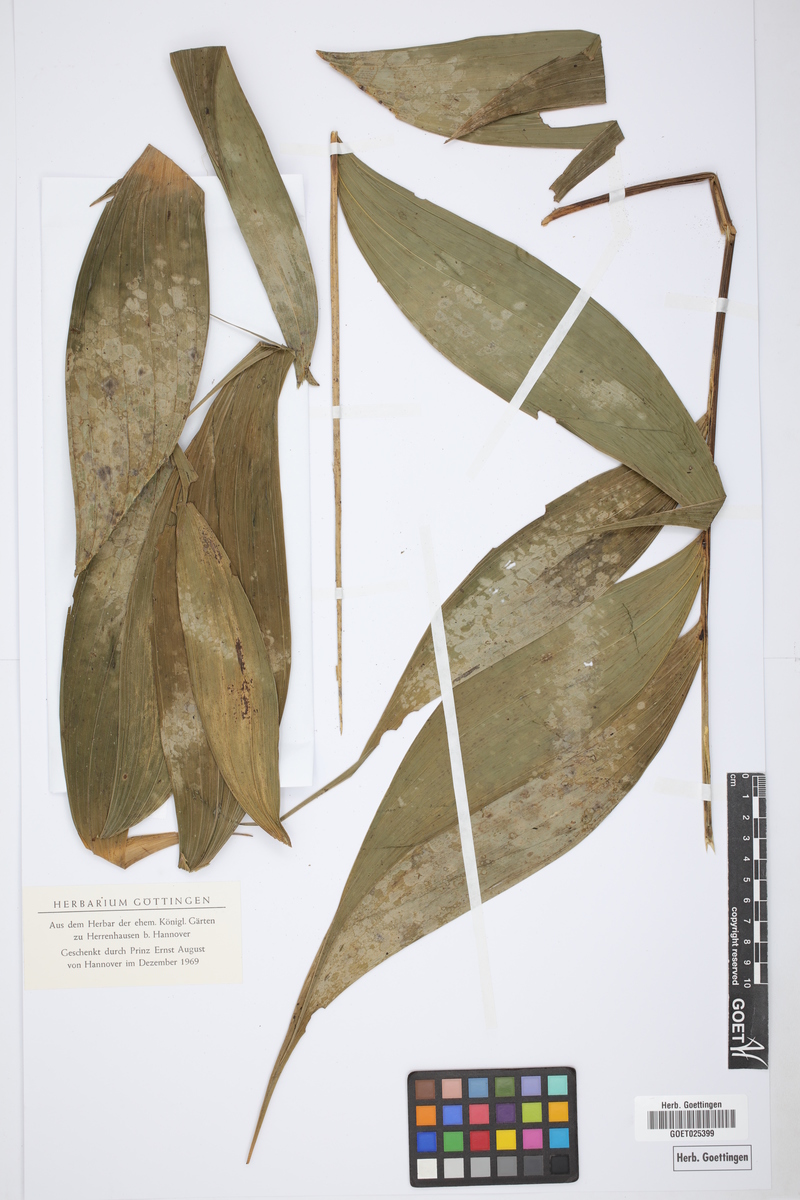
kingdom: Plantae
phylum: Tracheophyta
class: Liliopsida
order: Arecales
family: Arecaceae
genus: Chamaedorea
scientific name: Chamaedorea
